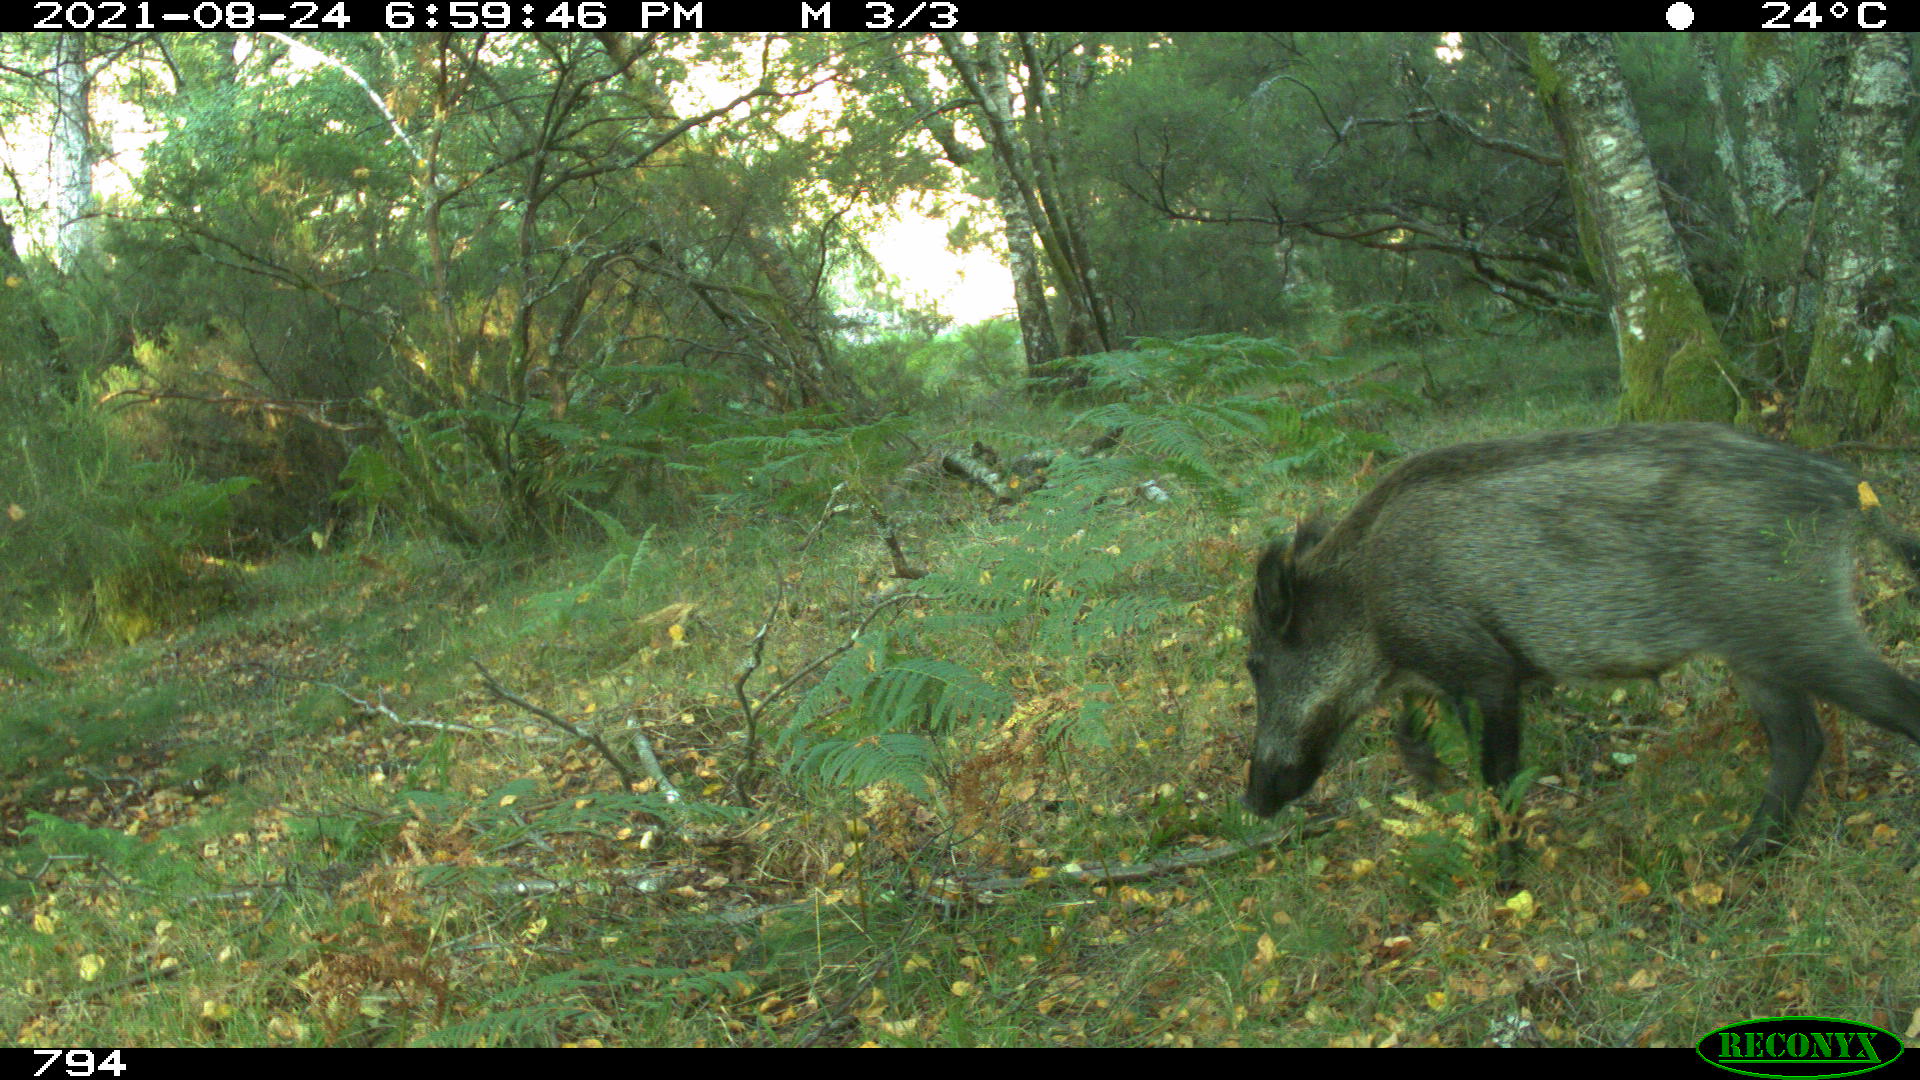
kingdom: Animalia
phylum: Chordata
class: Mammalia
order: Artiodactyla
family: Suidae
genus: Sus
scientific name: Sus scrofa
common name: Wild boar
